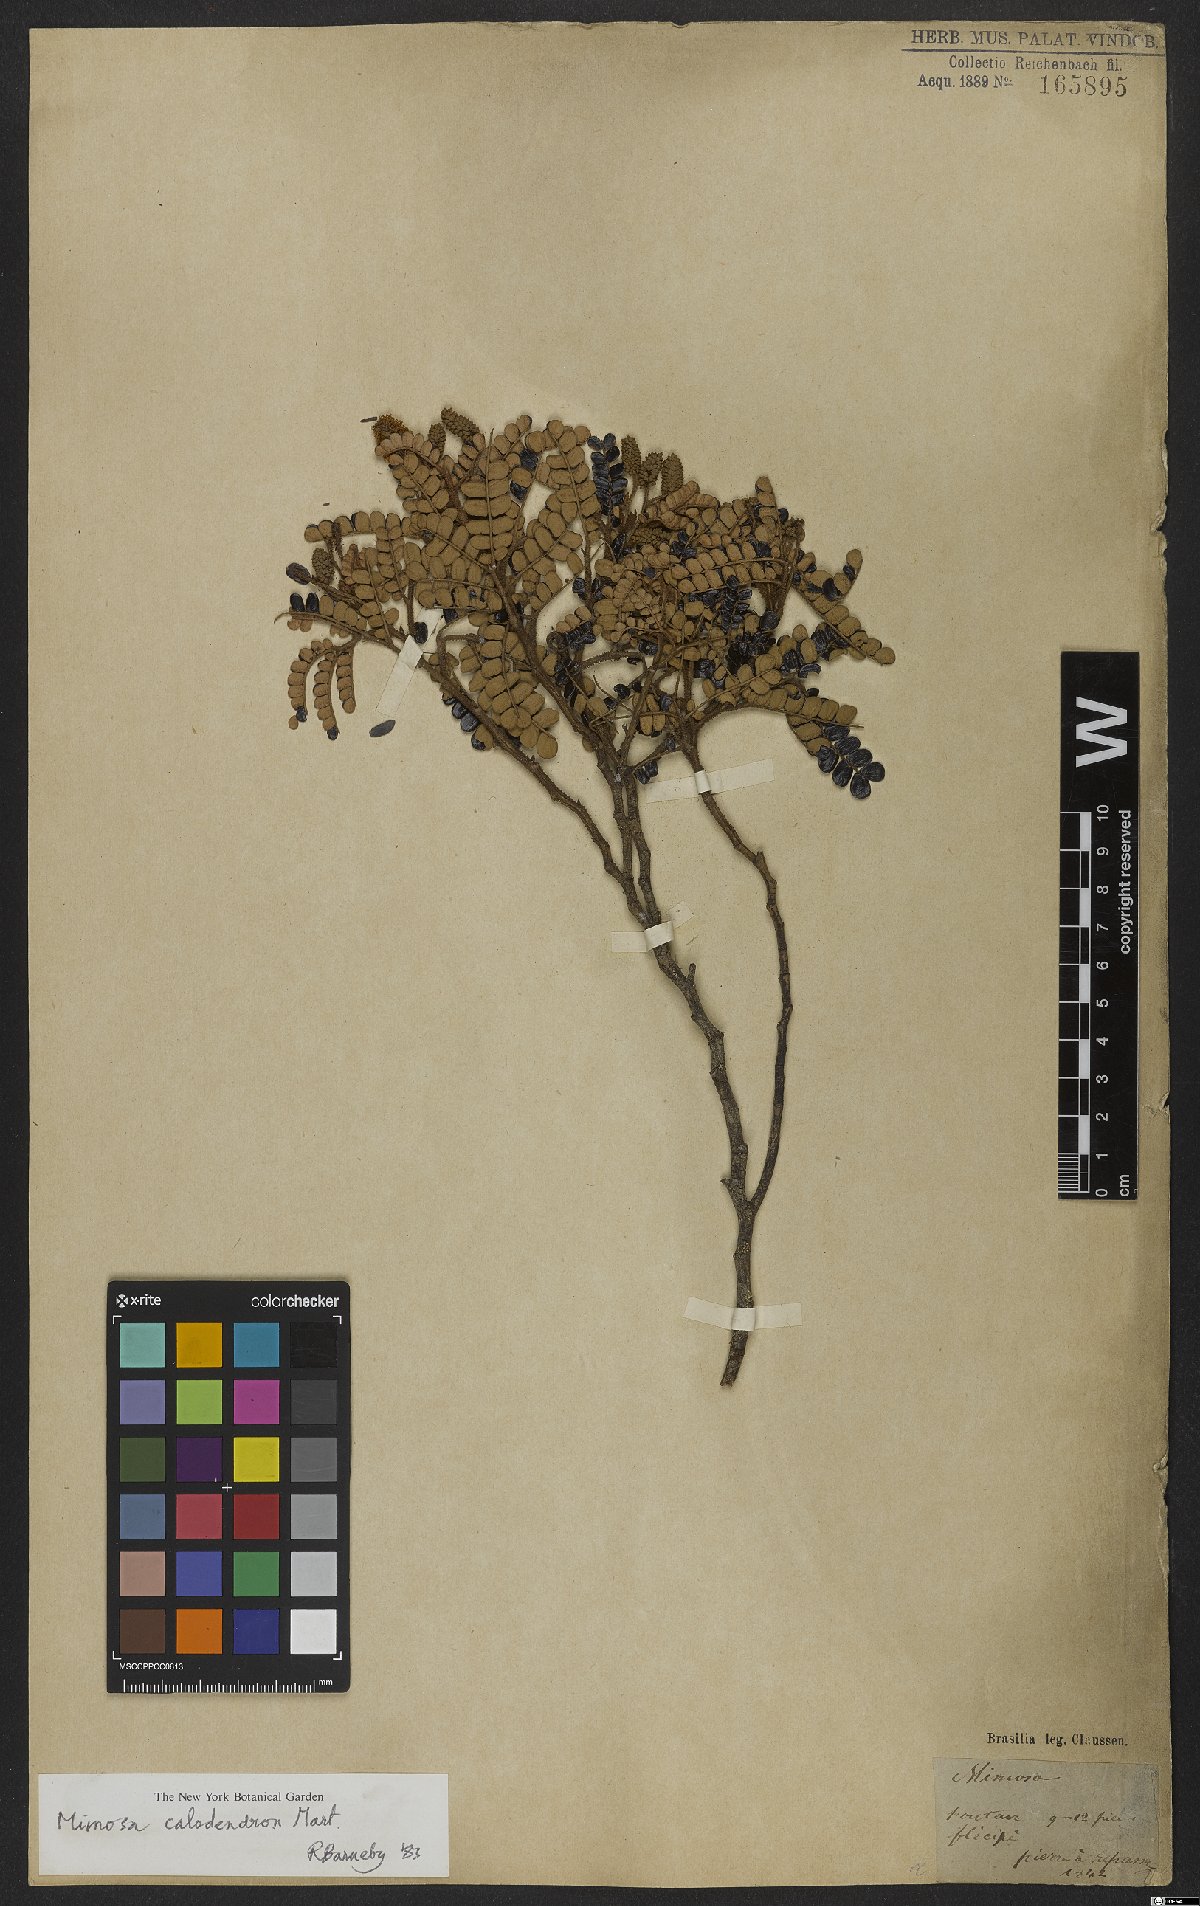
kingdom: Plantae
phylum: Tracheophyta
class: Magnoliopsida
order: Fabales
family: Fabaceae
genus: Mimosa
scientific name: Mimosa calodendron
